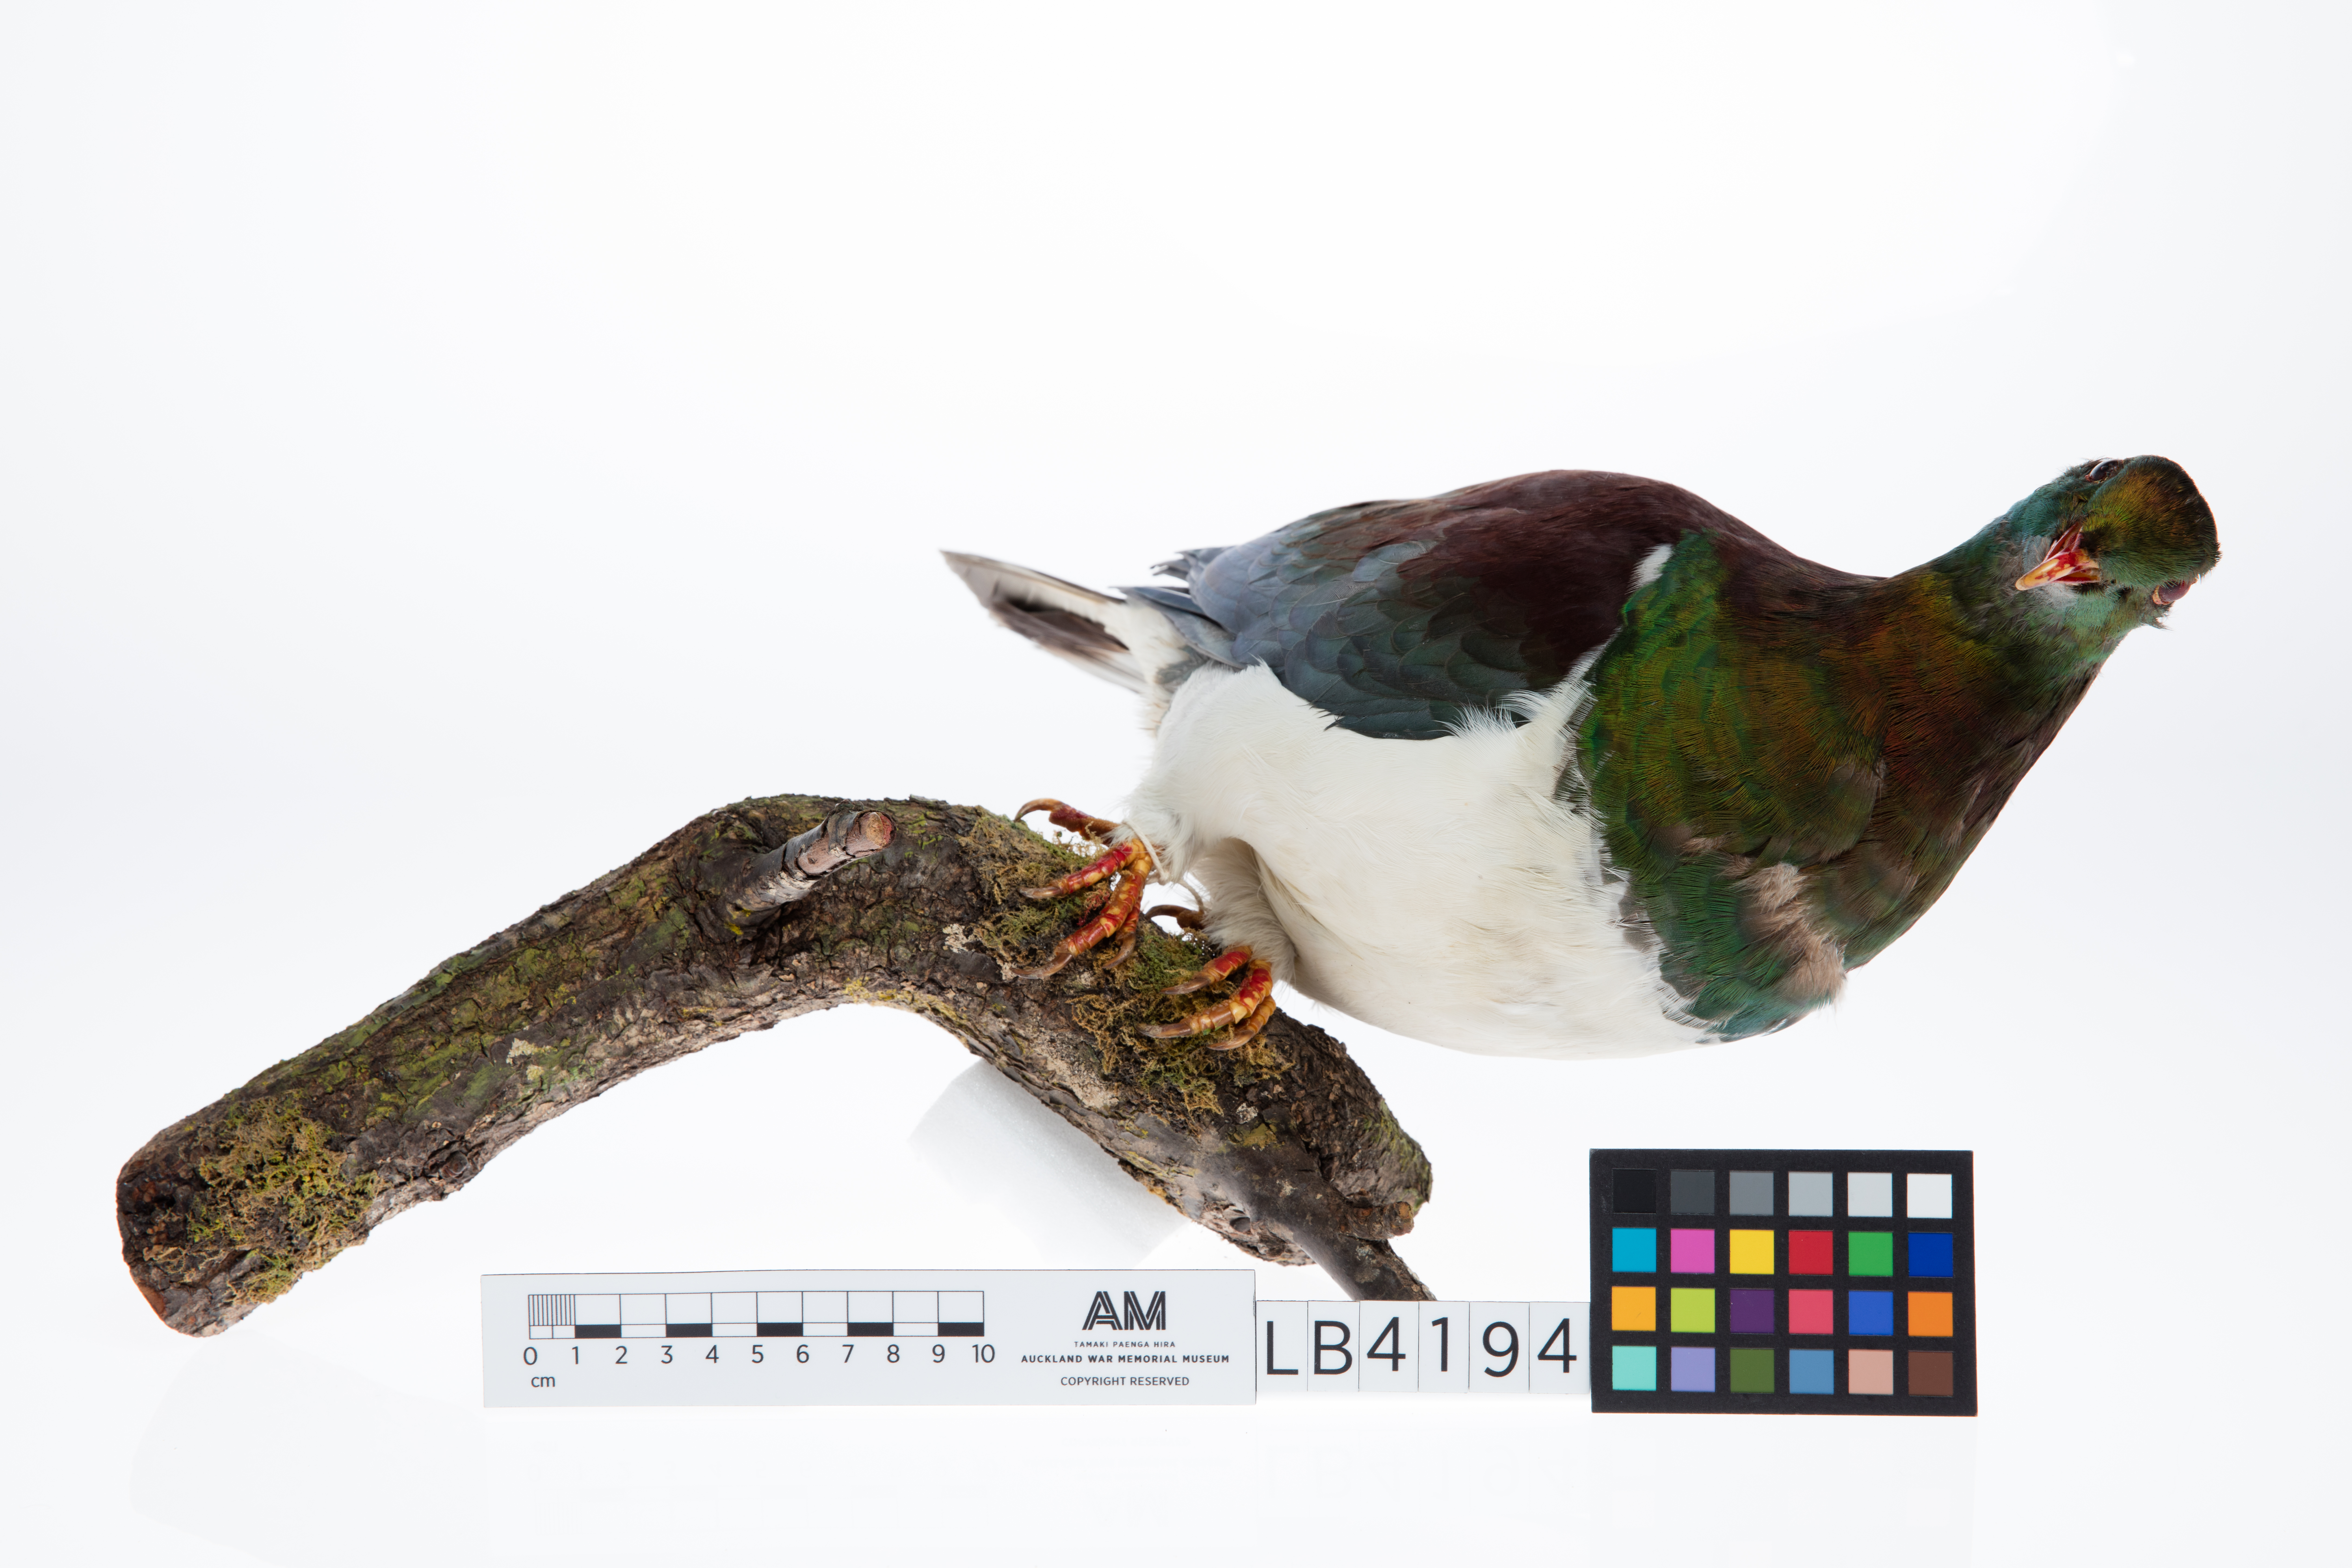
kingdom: Animalia
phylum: Chordata
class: Aves
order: Columbiformes
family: Columbidae
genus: Hemiphaga
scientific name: Hemiphaga novaeseelandiae
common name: New zealand pigeon
